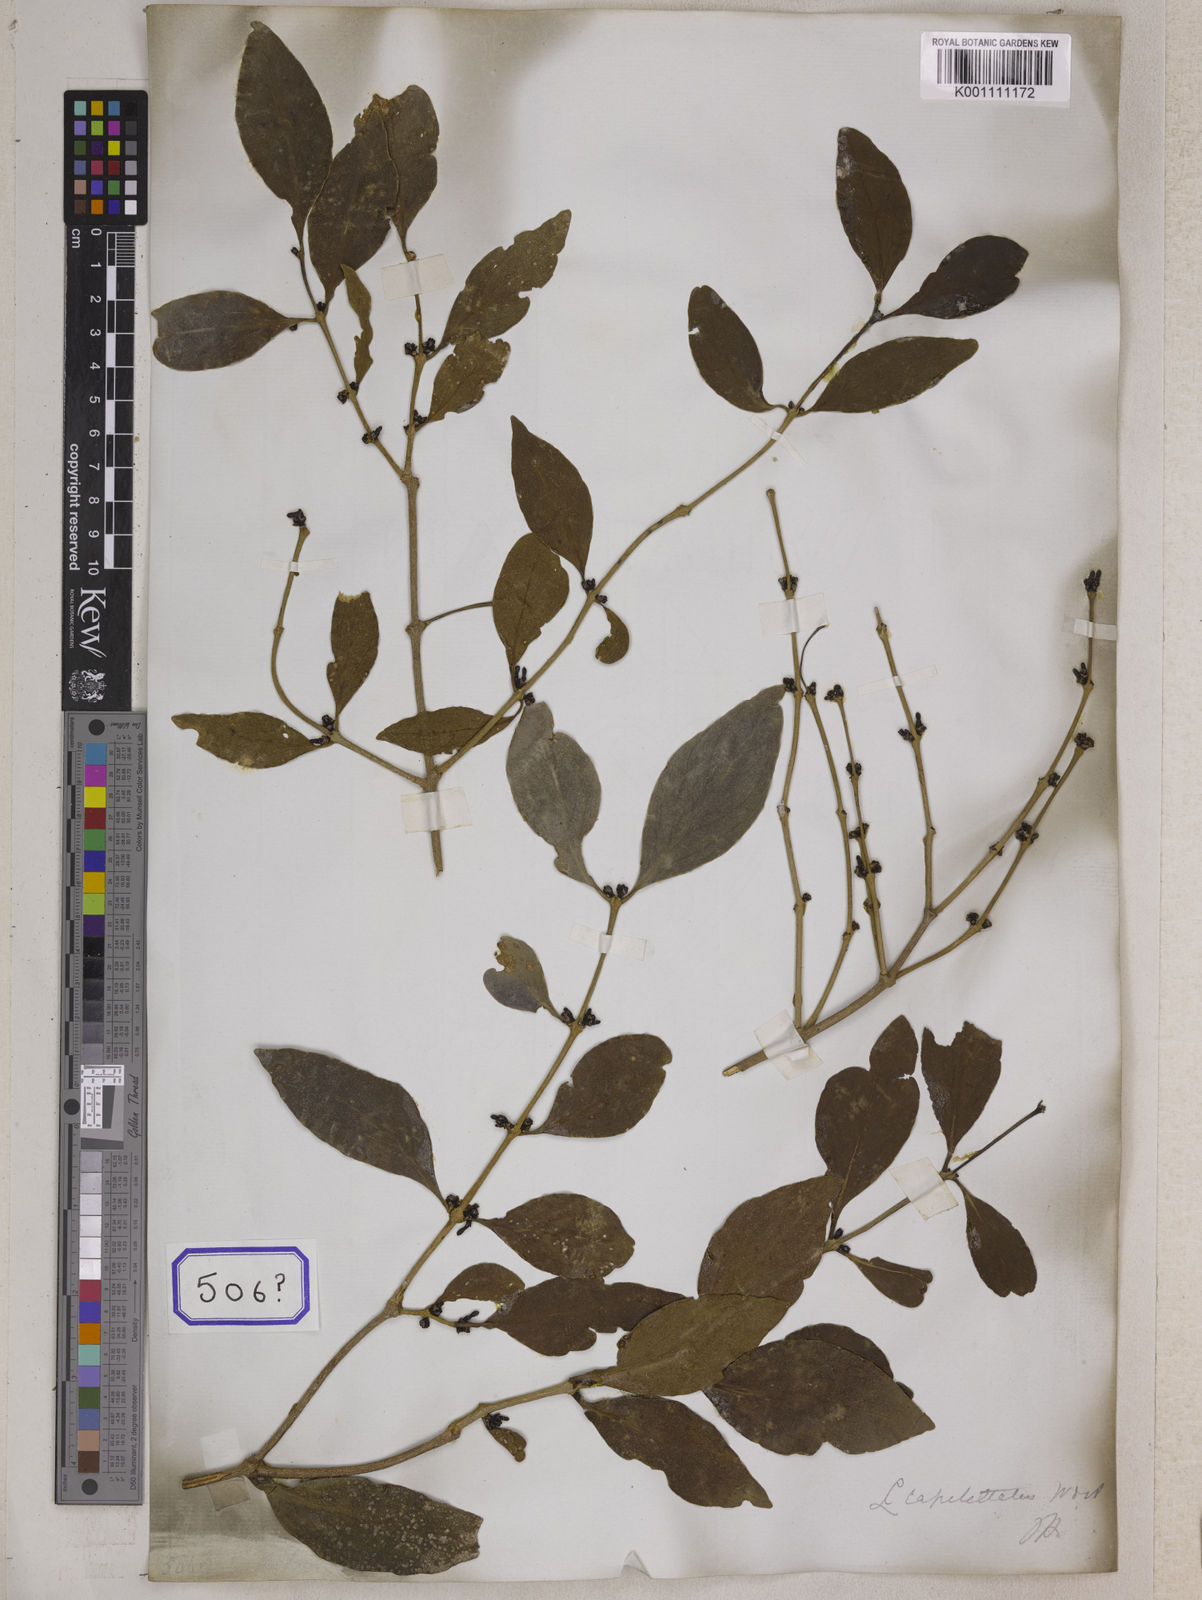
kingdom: Plantae
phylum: Tracheophyta
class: Magnoliopsida
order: Santalales
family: Loranthaceae
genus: Macrosolen
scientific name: Macrosolen parasiticus
